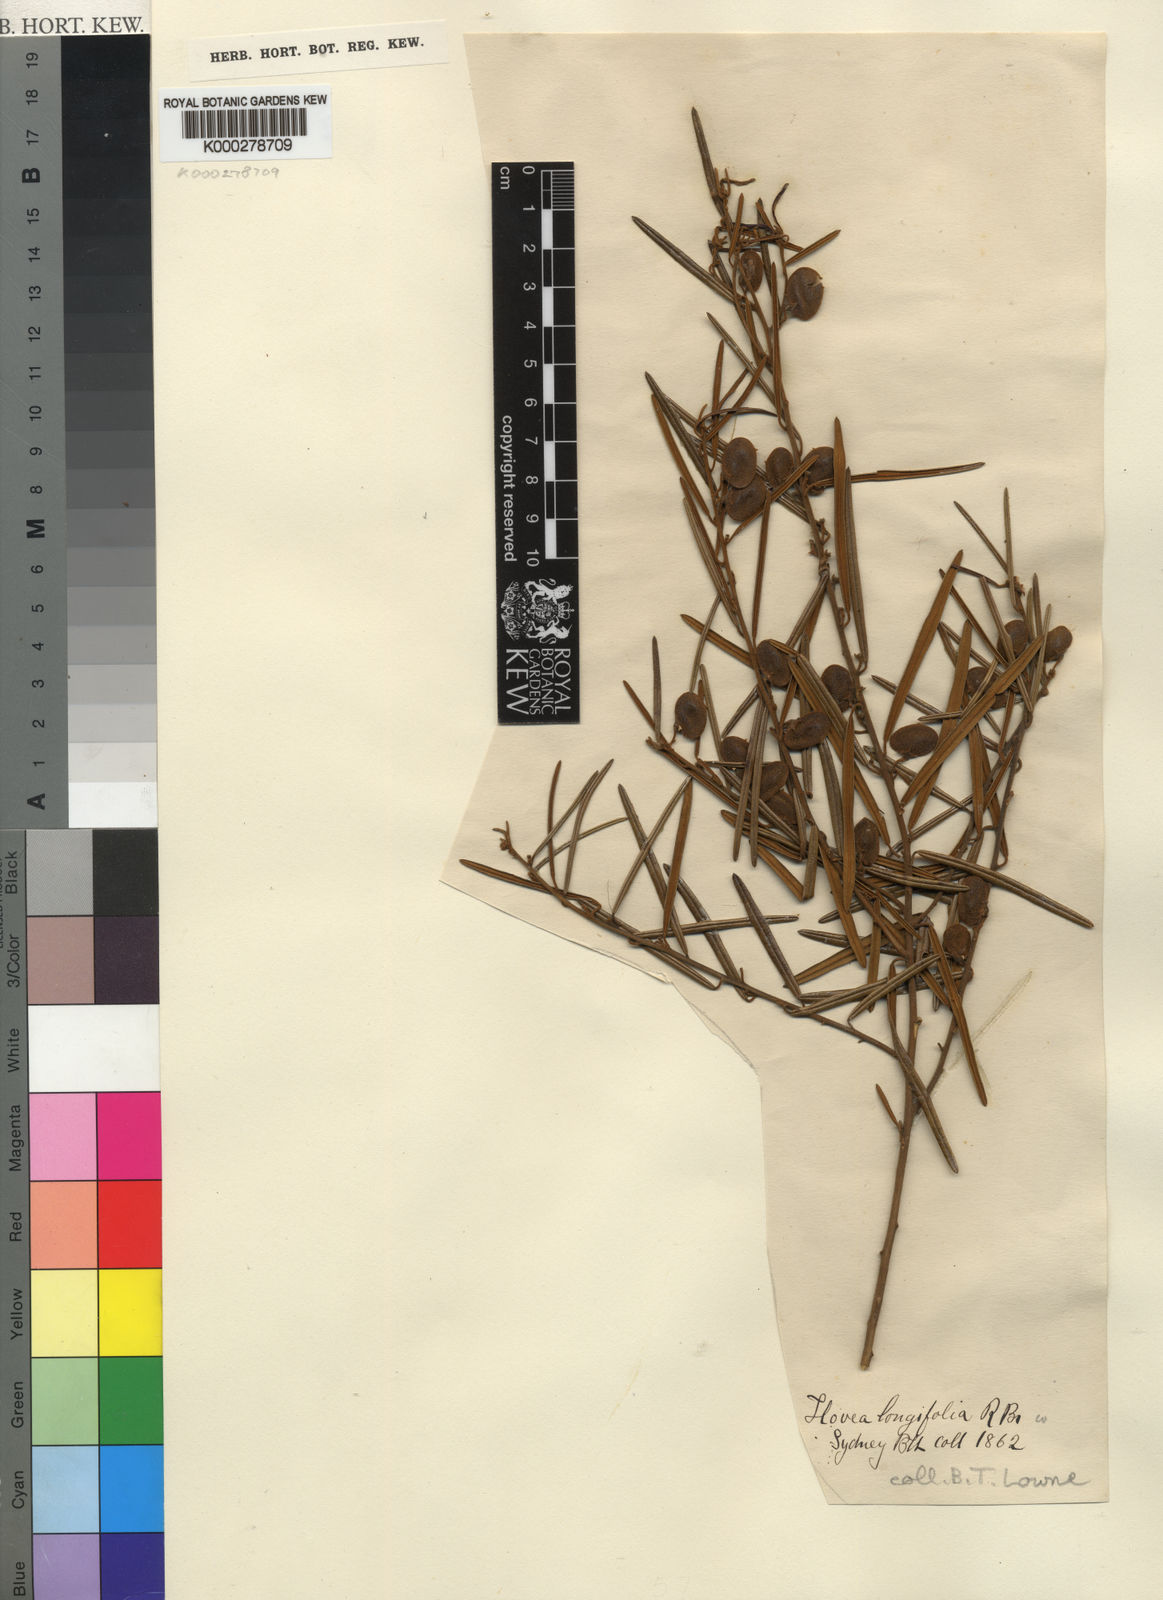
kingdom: Plantae
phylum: Tracheophyta
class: Magnoliopsida
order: Fabales
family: Fabaceae
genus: Hovea
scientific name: Hovea longifolia
